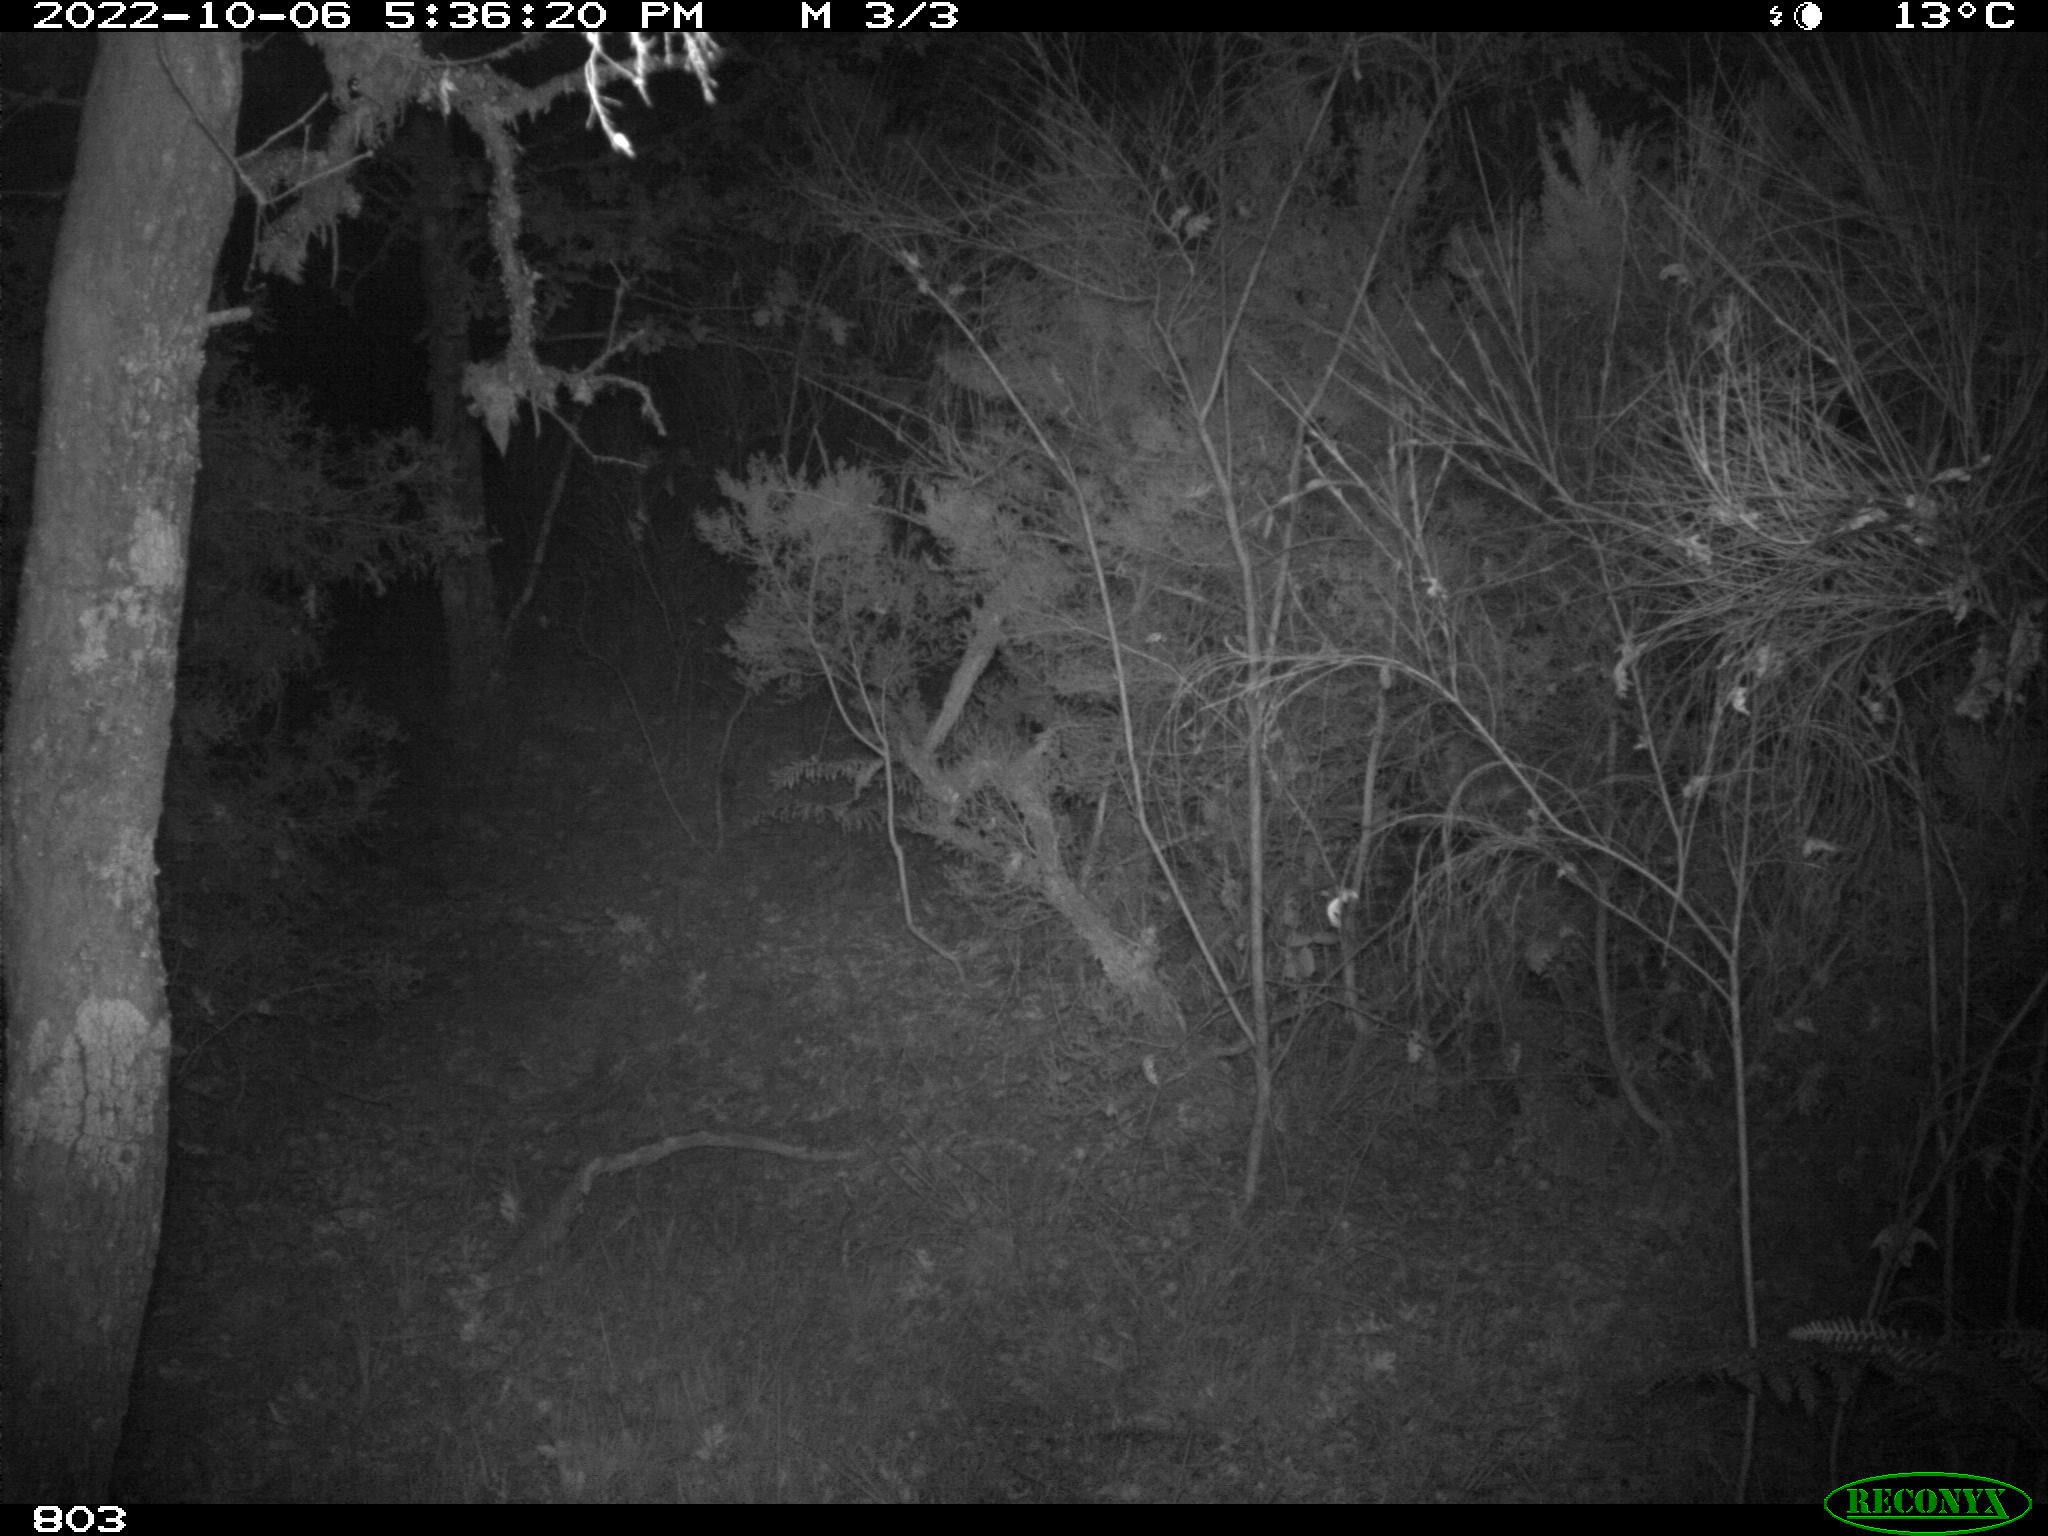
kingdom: Animalia
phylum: Chordata
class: Mammalia
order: Artiodactyla
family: Suidae
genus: Sus
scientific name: Sus scrofa
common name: Wild boar
